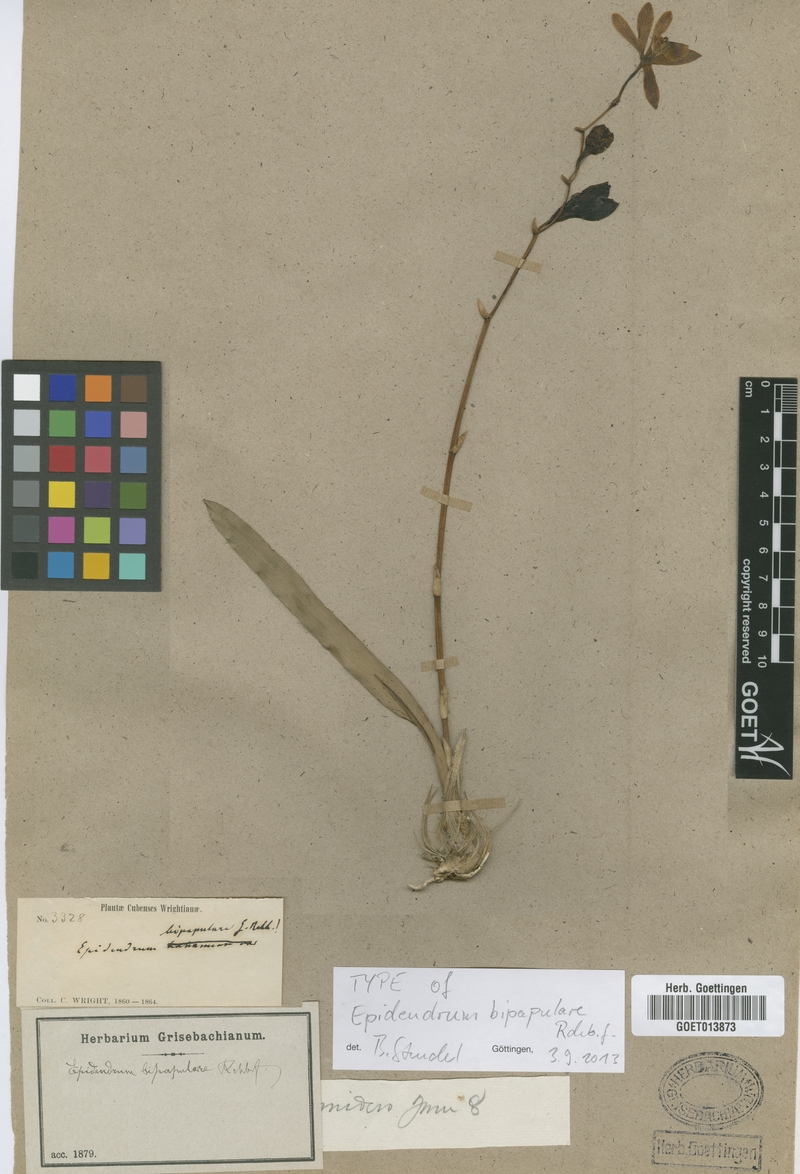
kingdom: Plantae
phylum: Tracheophyta
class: Liliopsida
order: Asparagales
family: Orchidaceae
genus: Encyclia
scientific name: Encyclia bipapularis
